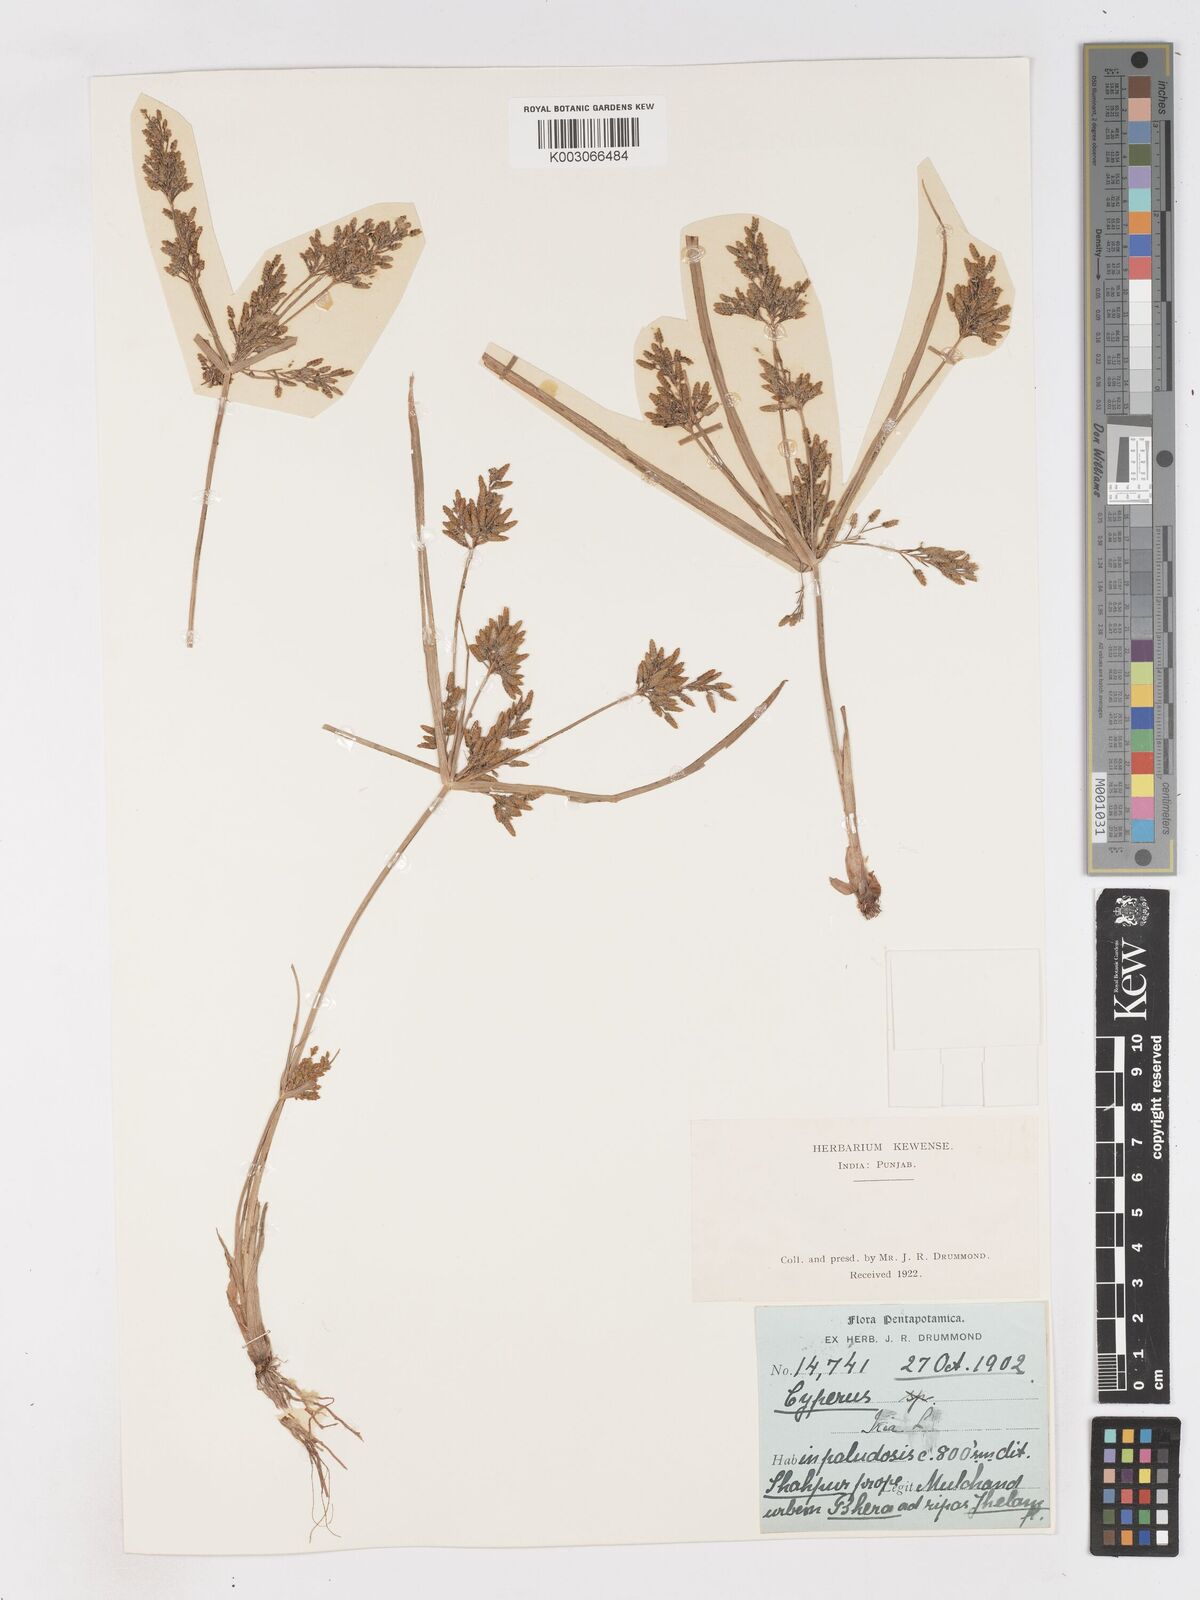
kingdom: Plantae
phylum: Tracheophyta
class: Liliopsida
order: Poales
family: Cyperaceae
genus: Cyperus
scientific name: Cyperus iria
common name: Ricefield flatsedge
